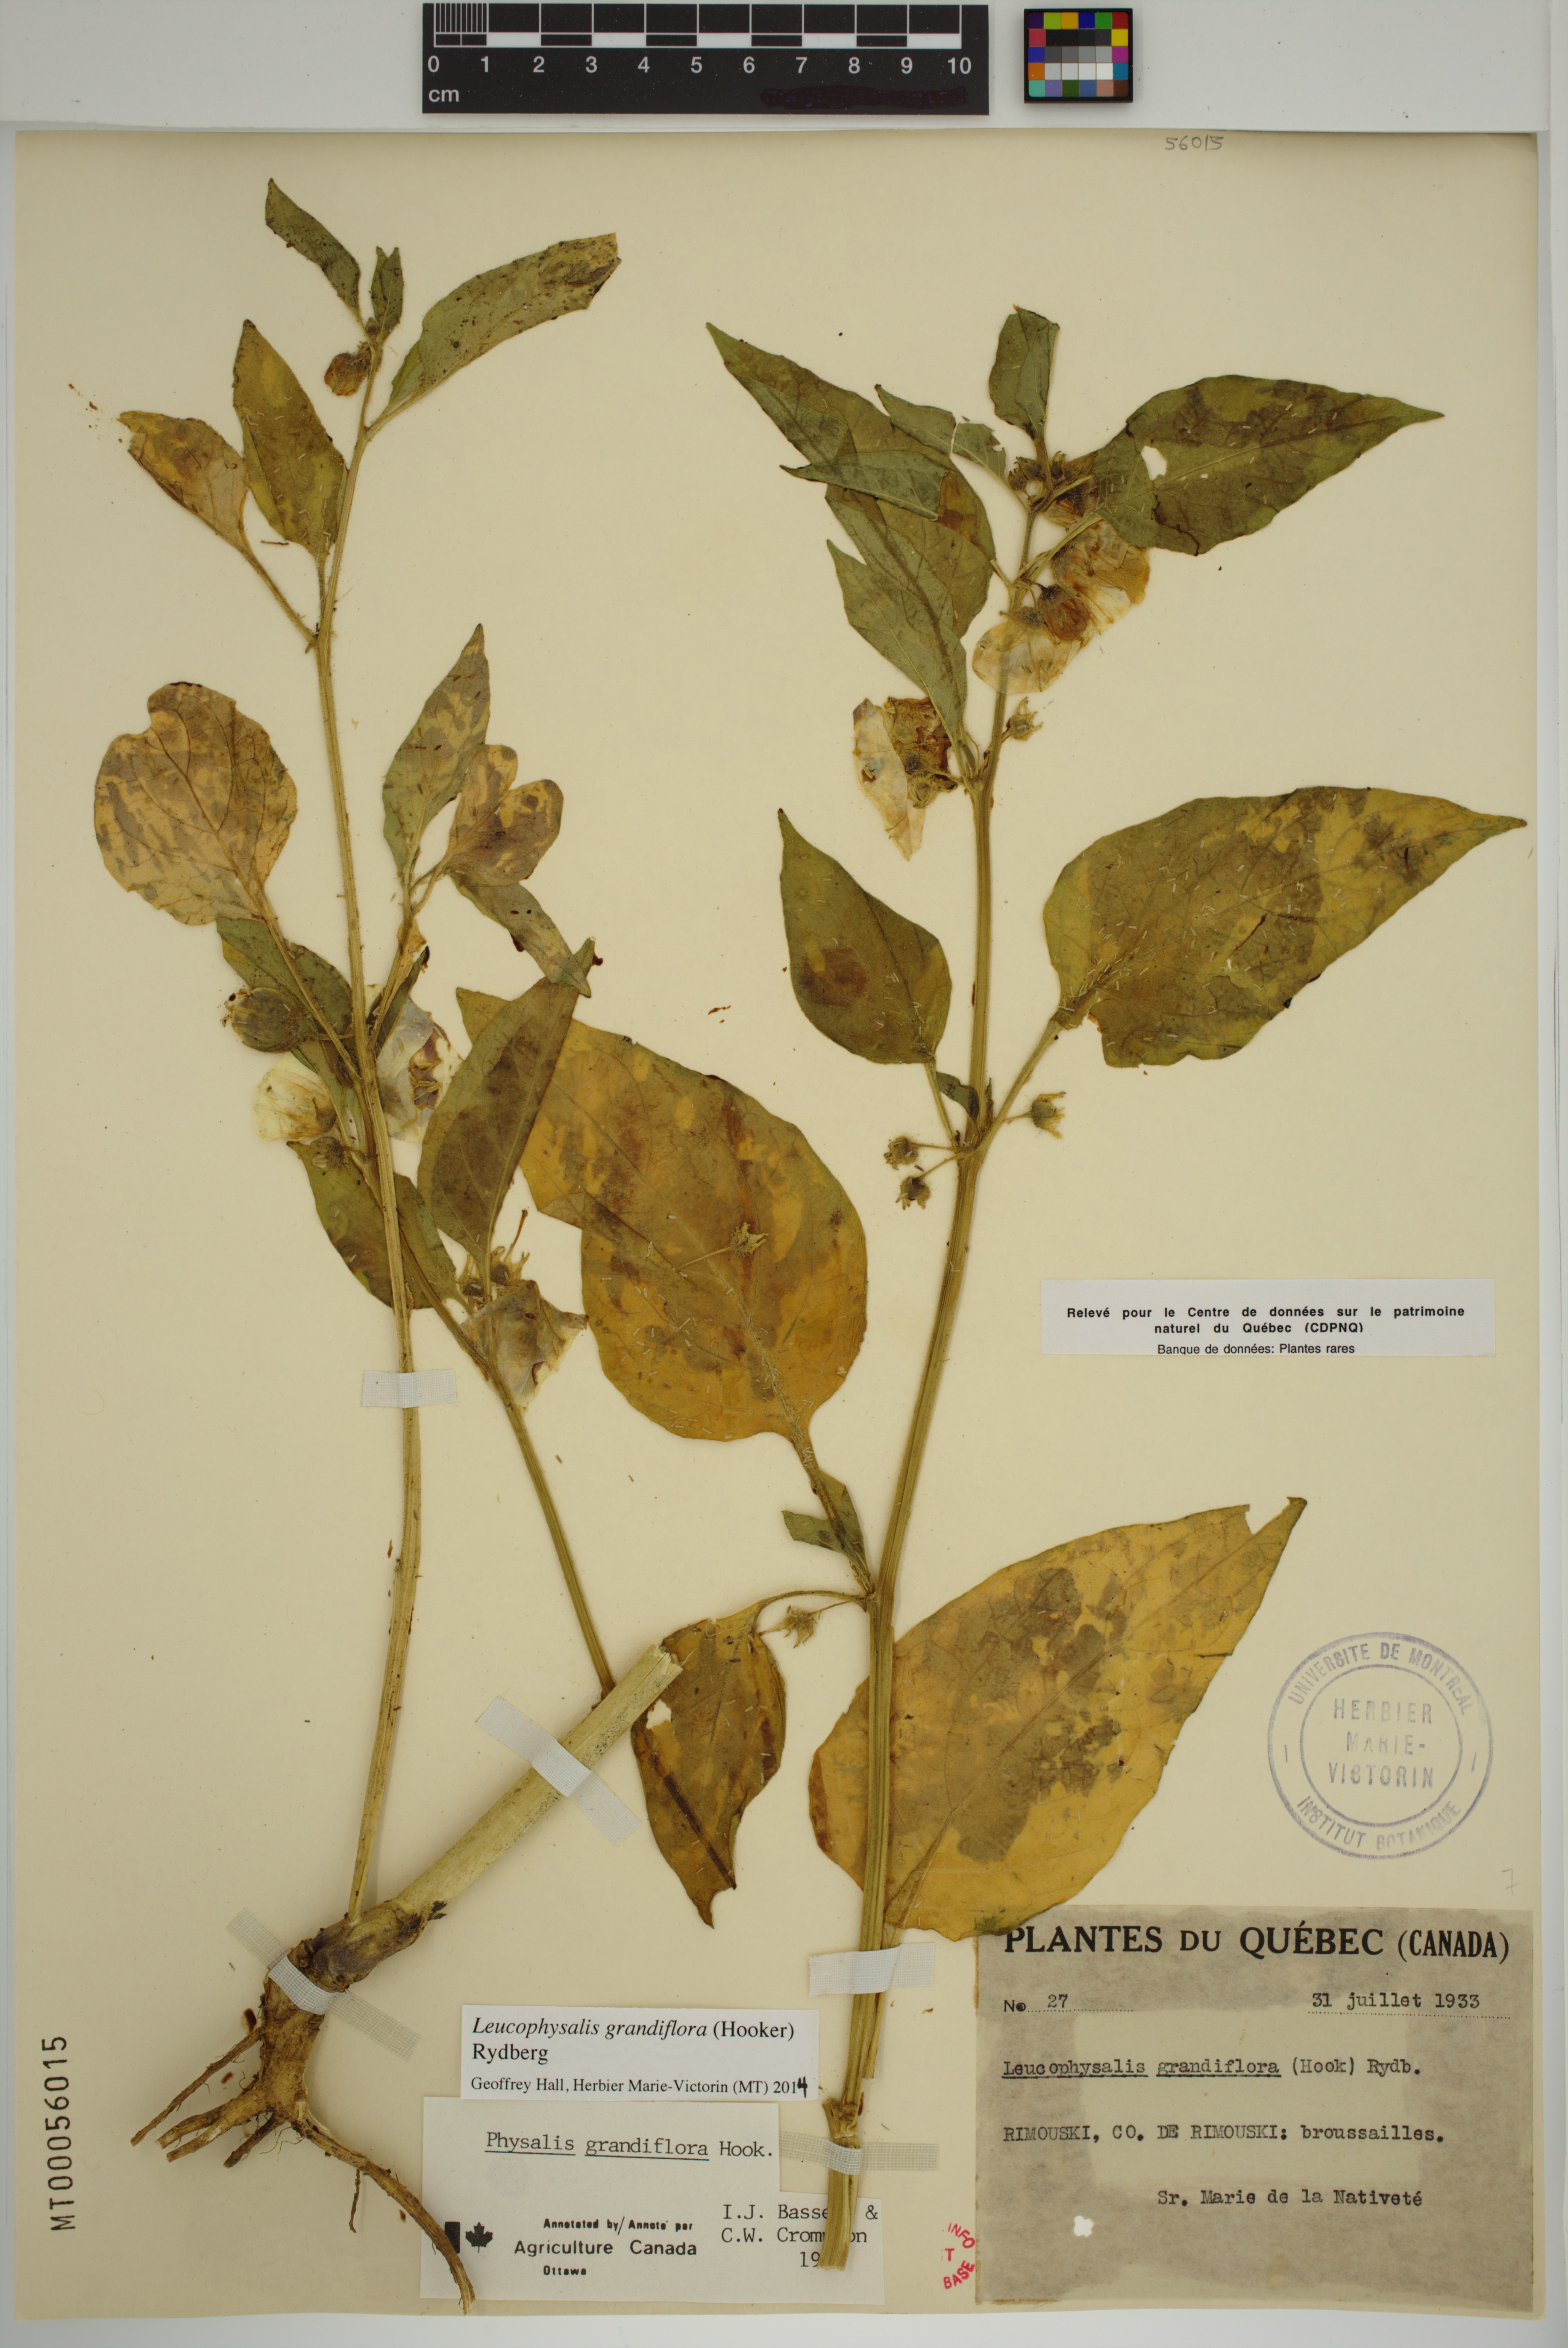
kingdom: Plantae
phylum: Tracheophyta
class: Magnoliopsida
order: Solanales
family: Solanaceae
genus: Leucophysalis
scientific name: Leucophysalis grandiflora
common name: Large false ground-cherry
